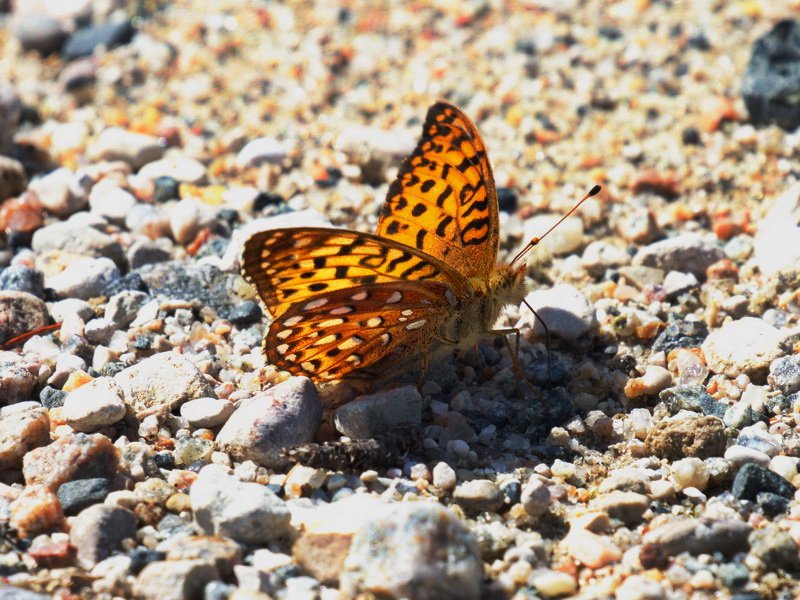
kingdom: Animalia
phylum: Arthropoda
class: Insecta
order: Lepidoptera
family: Nymphalidae
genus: Speyeria
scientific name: Speyeria aphrodite
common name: Aphrodite Fritillary
